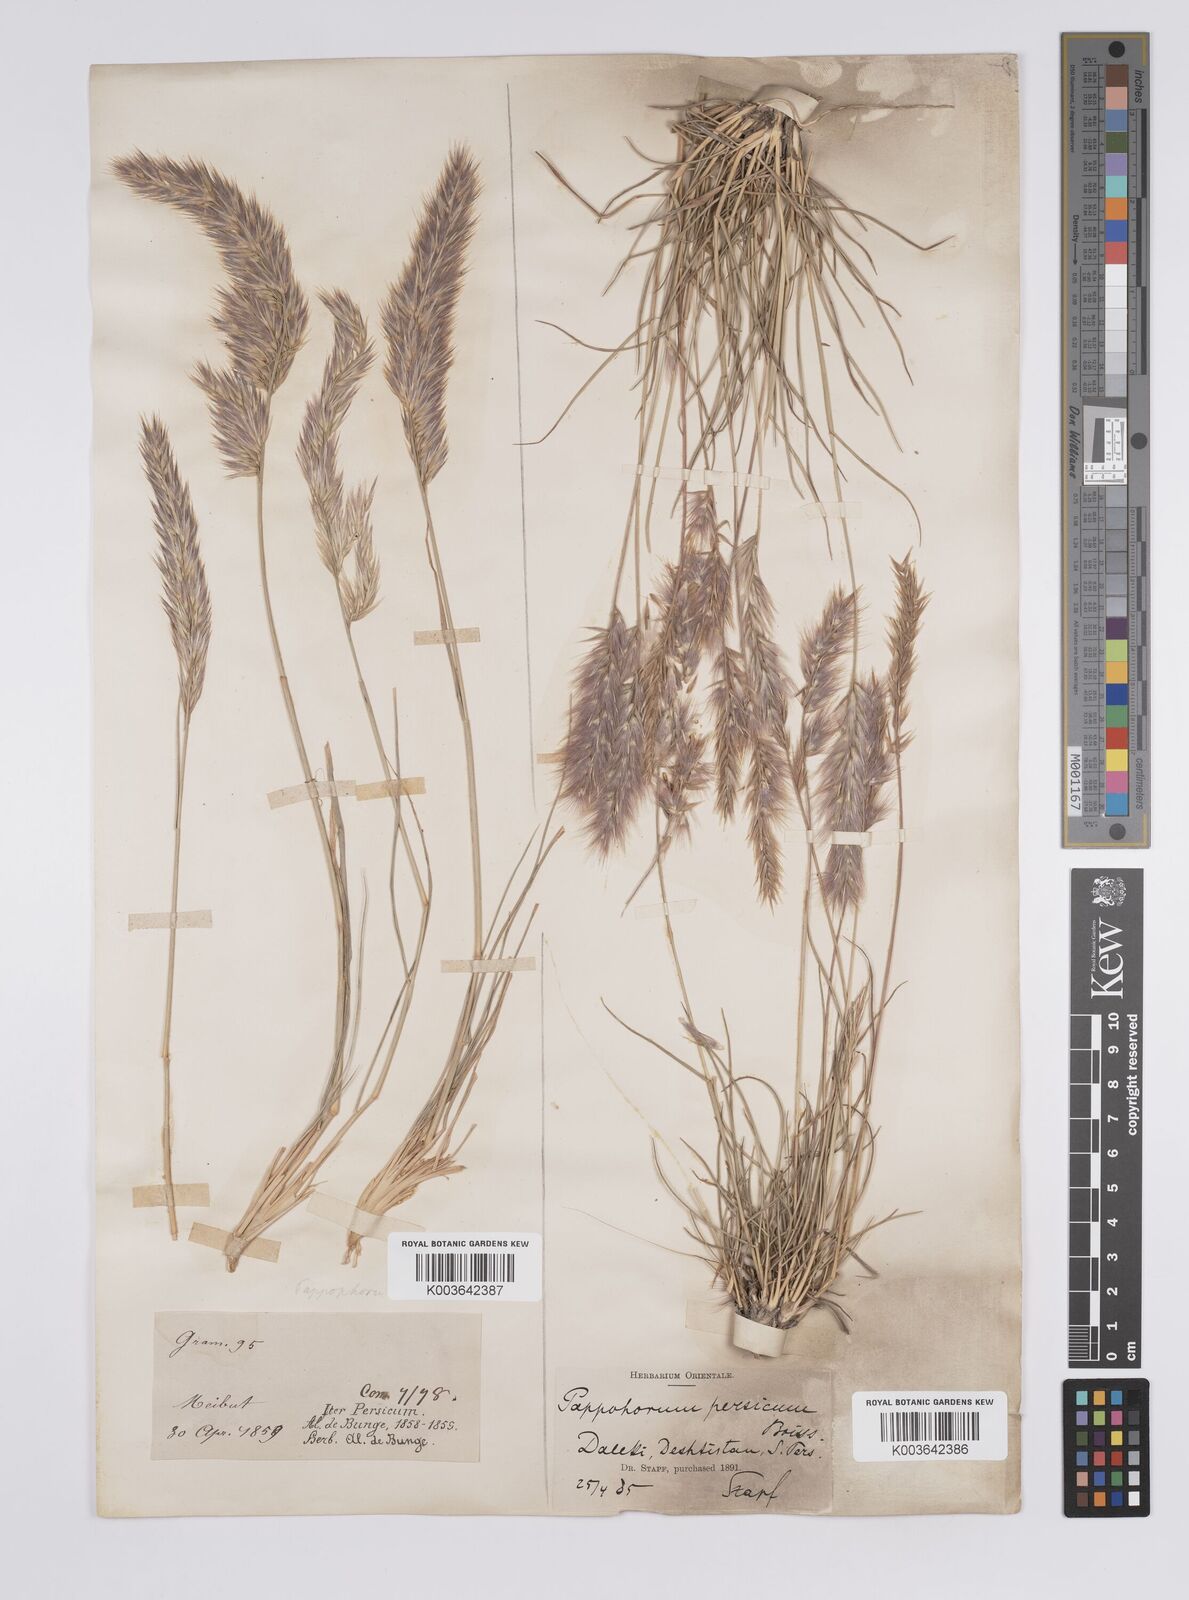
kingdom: Plantae
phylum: Tracheophyta
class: Liliopsida
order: Poales
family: Poaceae
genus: Enneapogon
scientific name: Enneapogon persicus
